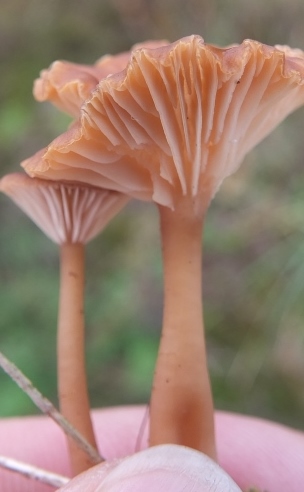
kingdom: Fungi
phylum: Basidiomycota
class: Agaricomycetes
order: Agaricales
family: Tricholomataceae
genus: Omphalina
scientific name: Omphalina pyxidata
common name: rødbrun navlehat
